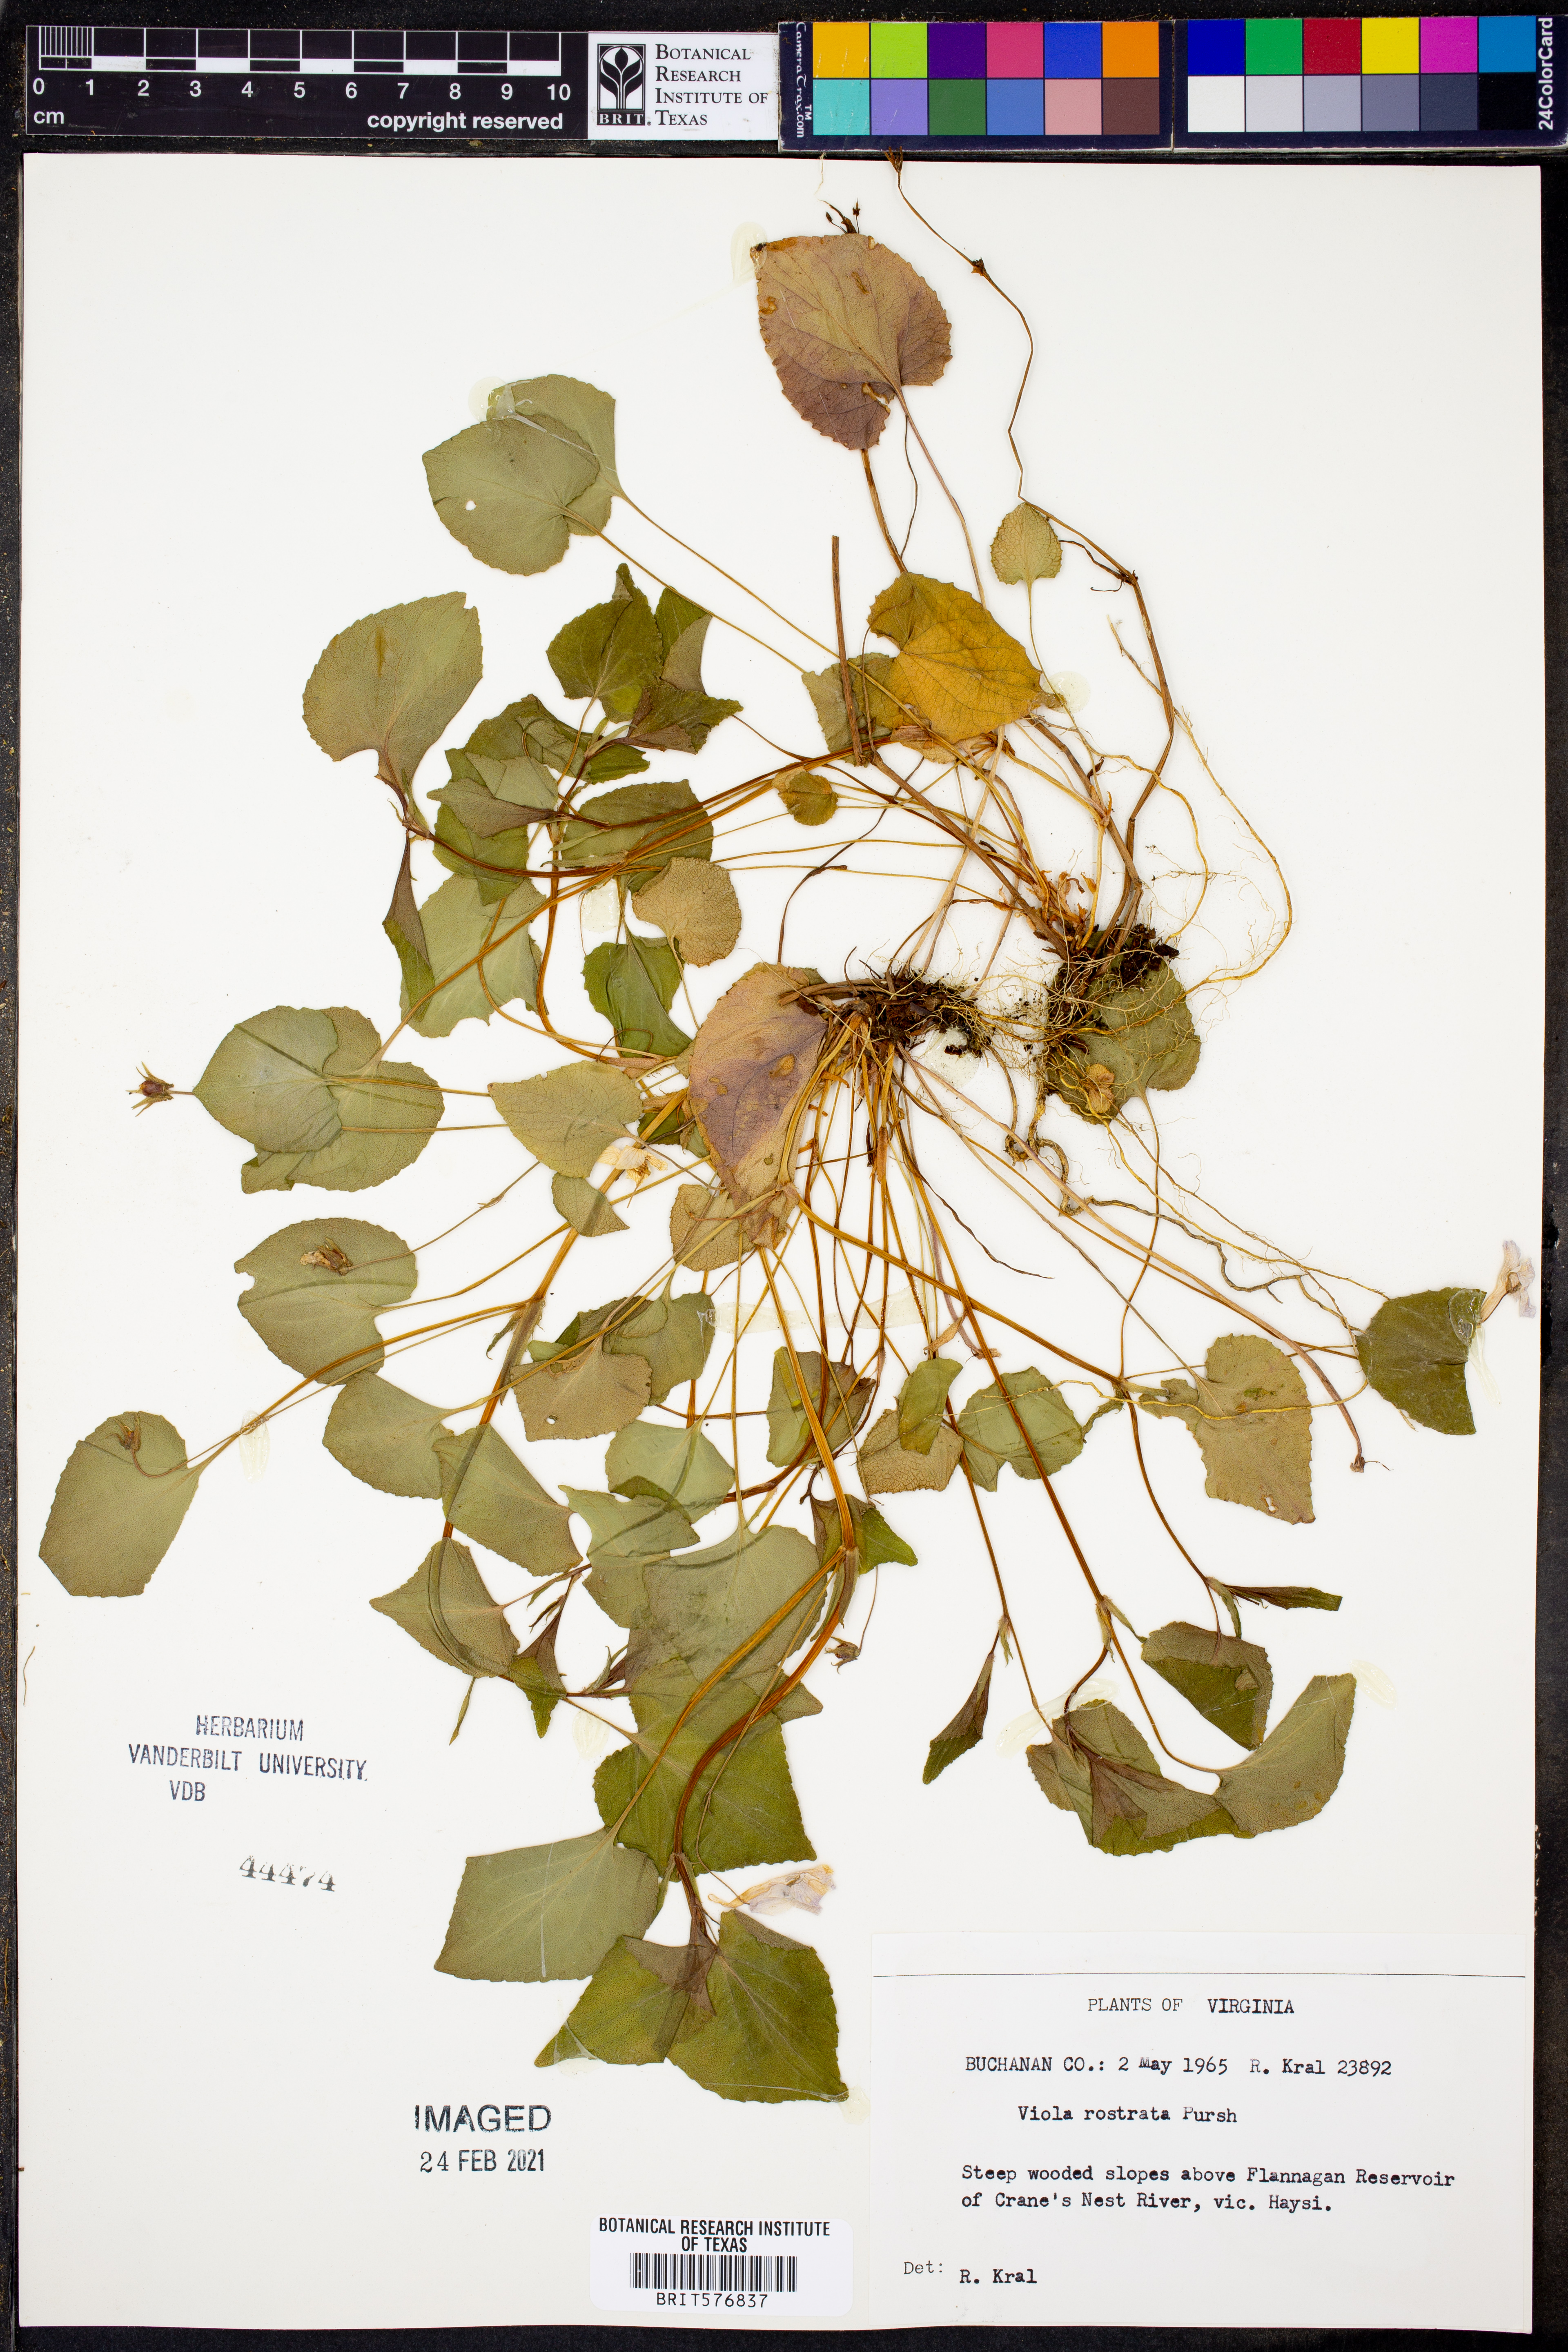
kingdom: Plantae
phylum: Tracheophyta
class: Magnoliopsida
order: Malpighiales
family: Violaceae
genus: Viola
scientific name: Viola rostrata
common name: Long-spur violet
